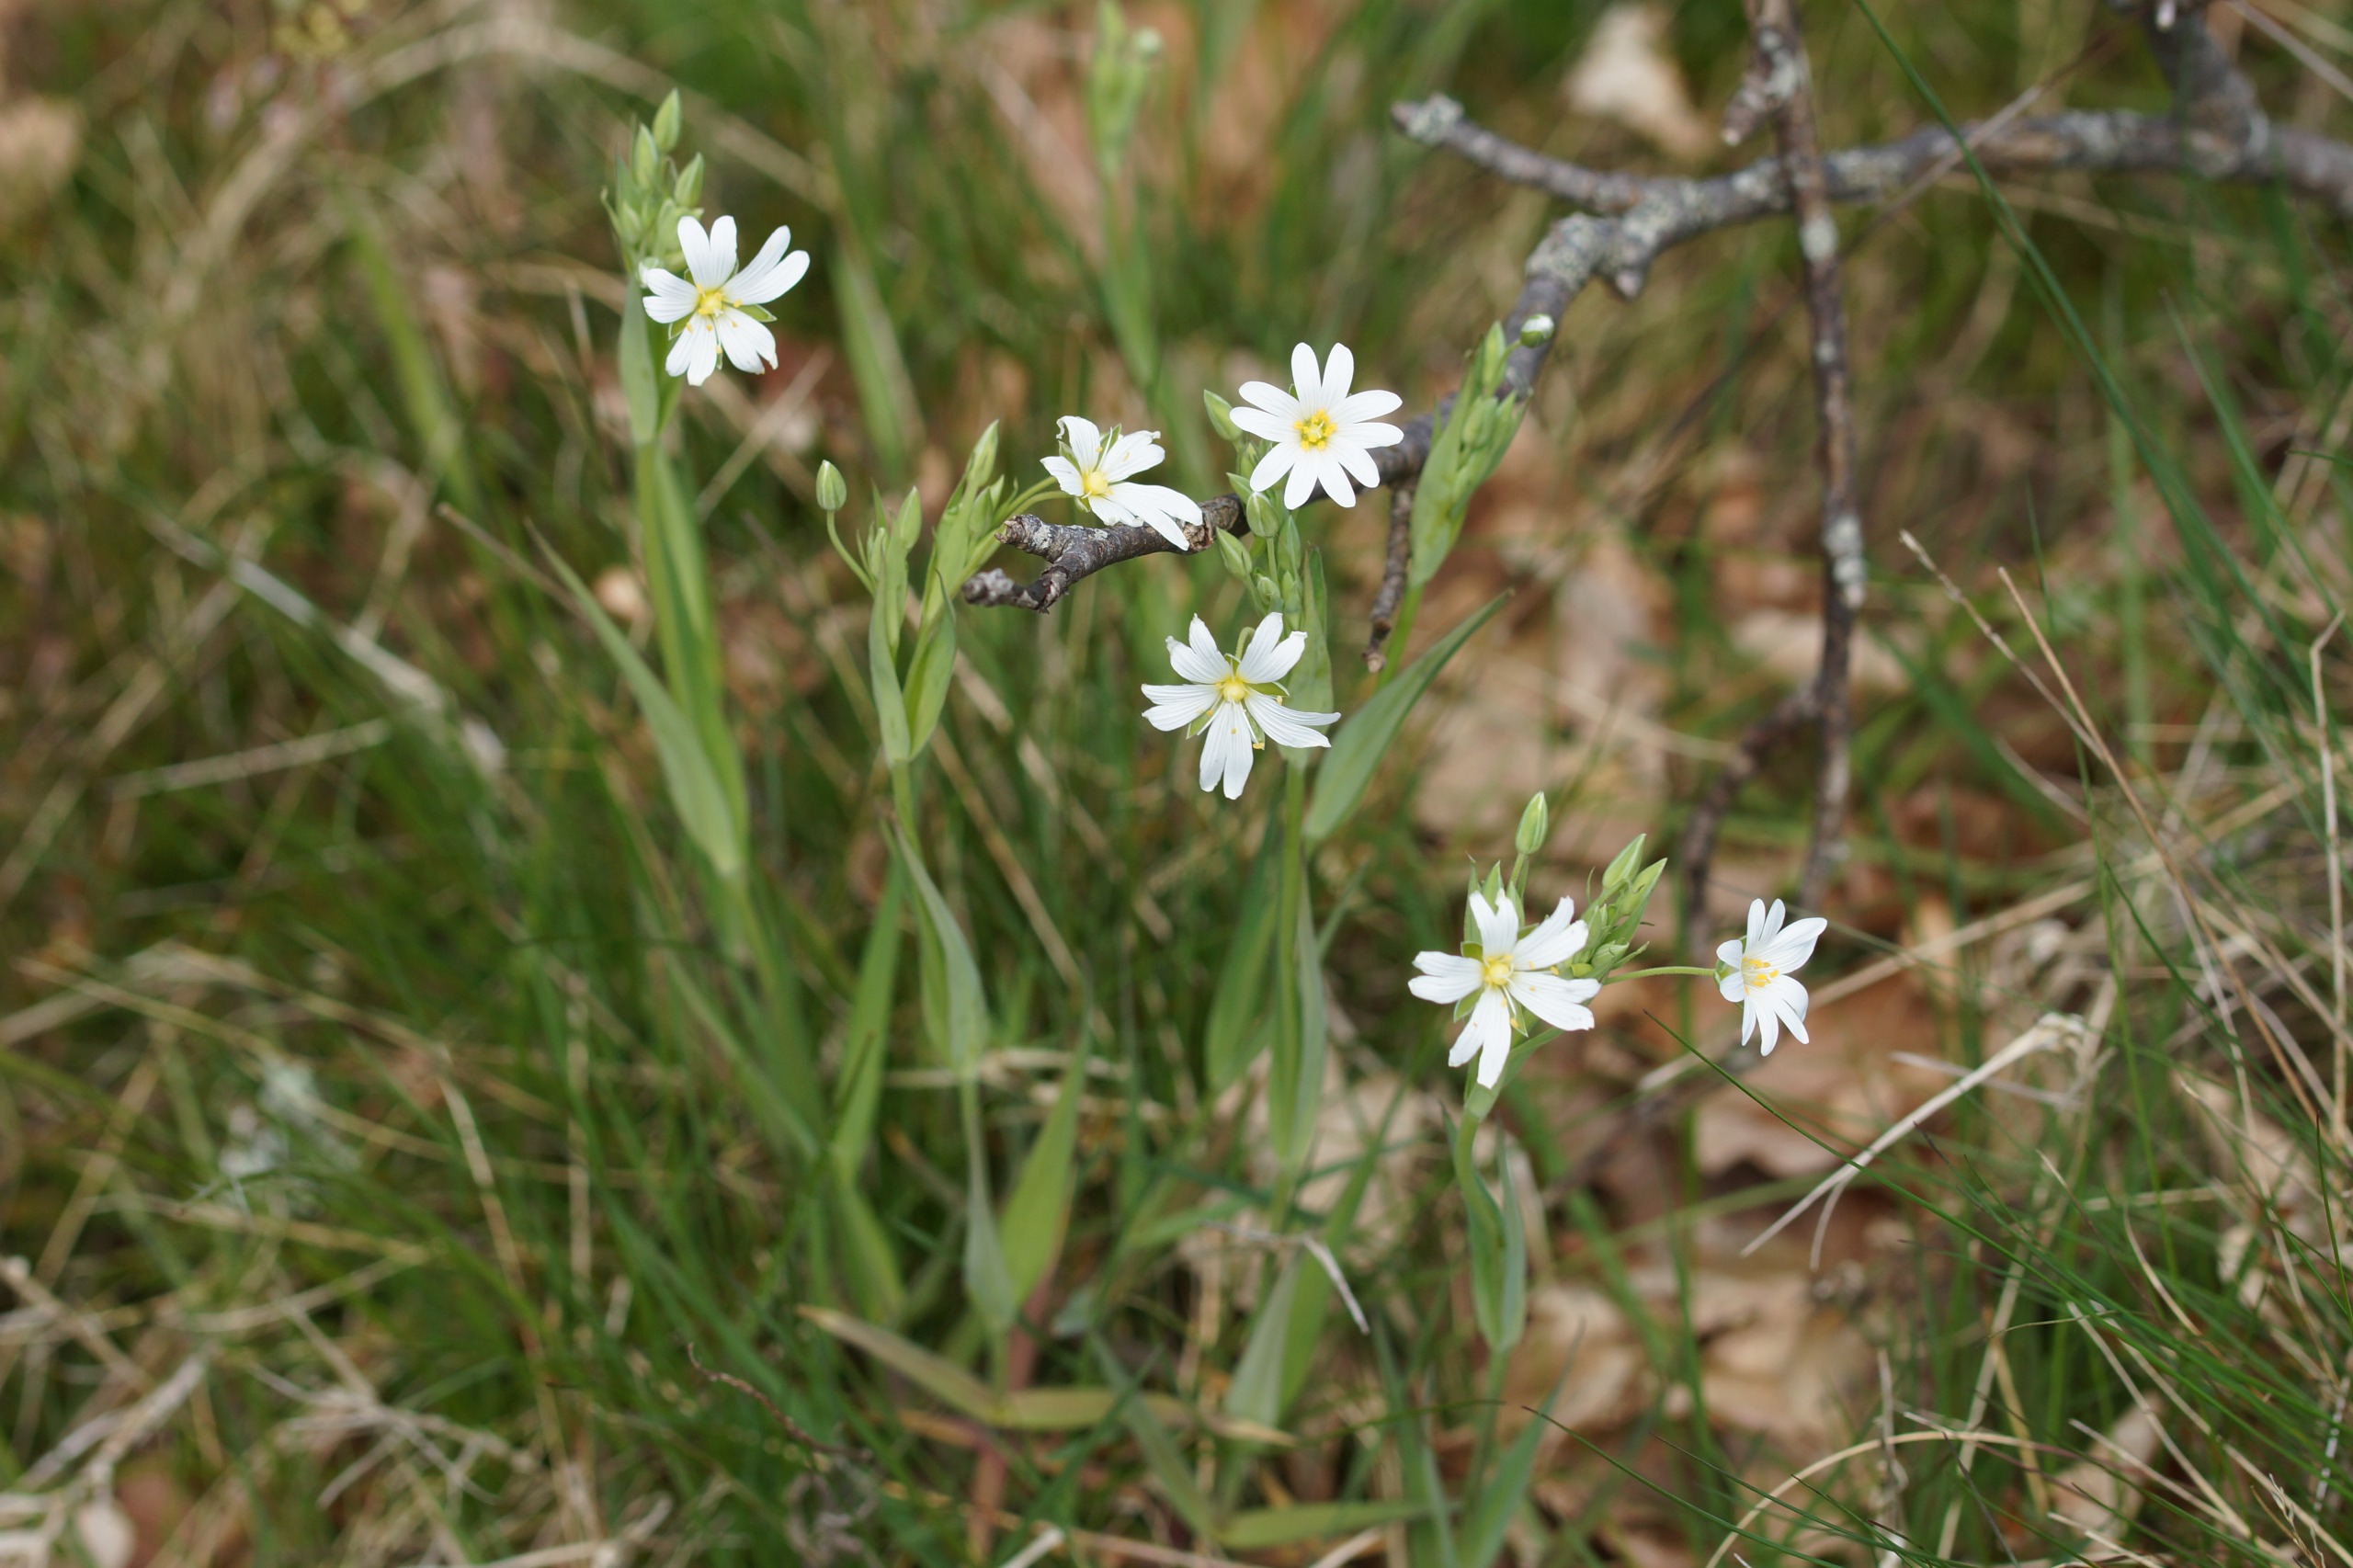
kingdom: Plantae
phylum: Tracheophyta
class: Magnoliopsida
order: Caryophyllales
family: Caryophyllaceae
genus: Rabelera
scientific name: Rabelera holostea
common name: Stor fladstjerne
